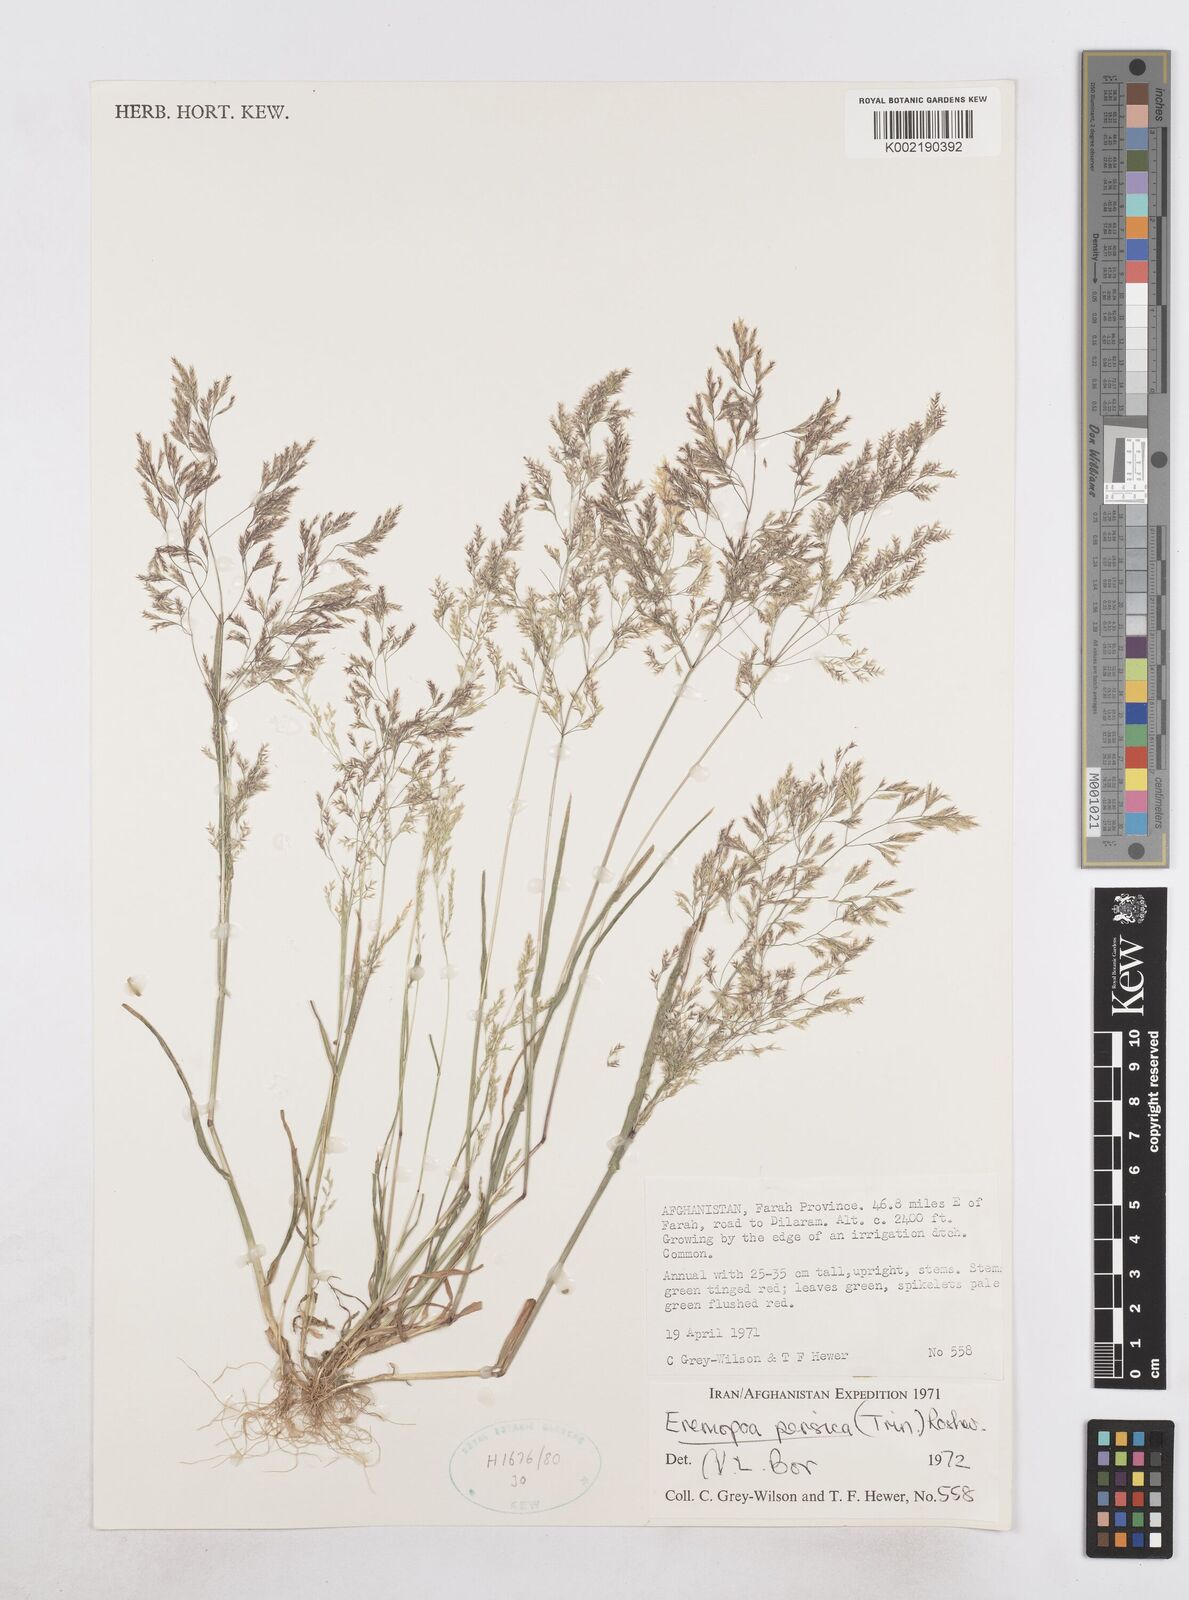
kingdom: Plantae
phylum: Tracheophyta
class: Liliopsida
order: Poales
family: Poaceae
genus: Poa
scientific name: Poa persica
